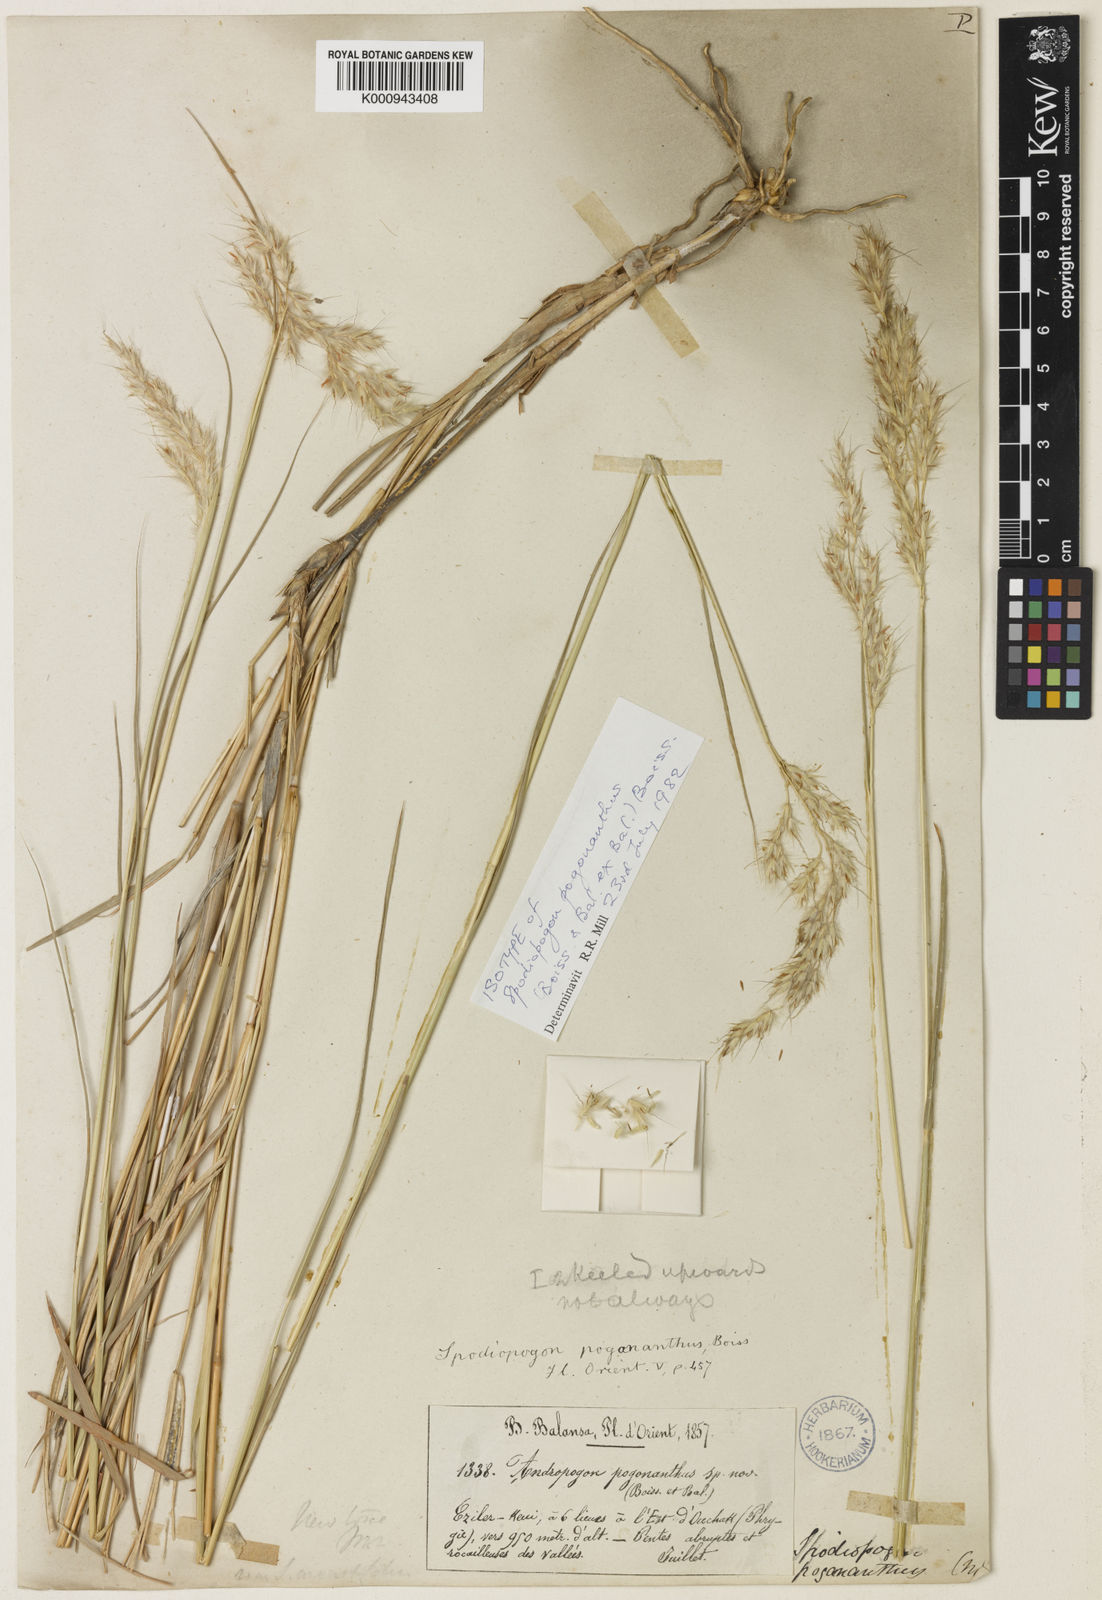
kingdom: Plantae
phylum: Tracheophyta
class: Liliopsida
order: Poales
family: Poaceae
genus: Spodiopogon
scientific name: Spodiopogon pogonanthus
